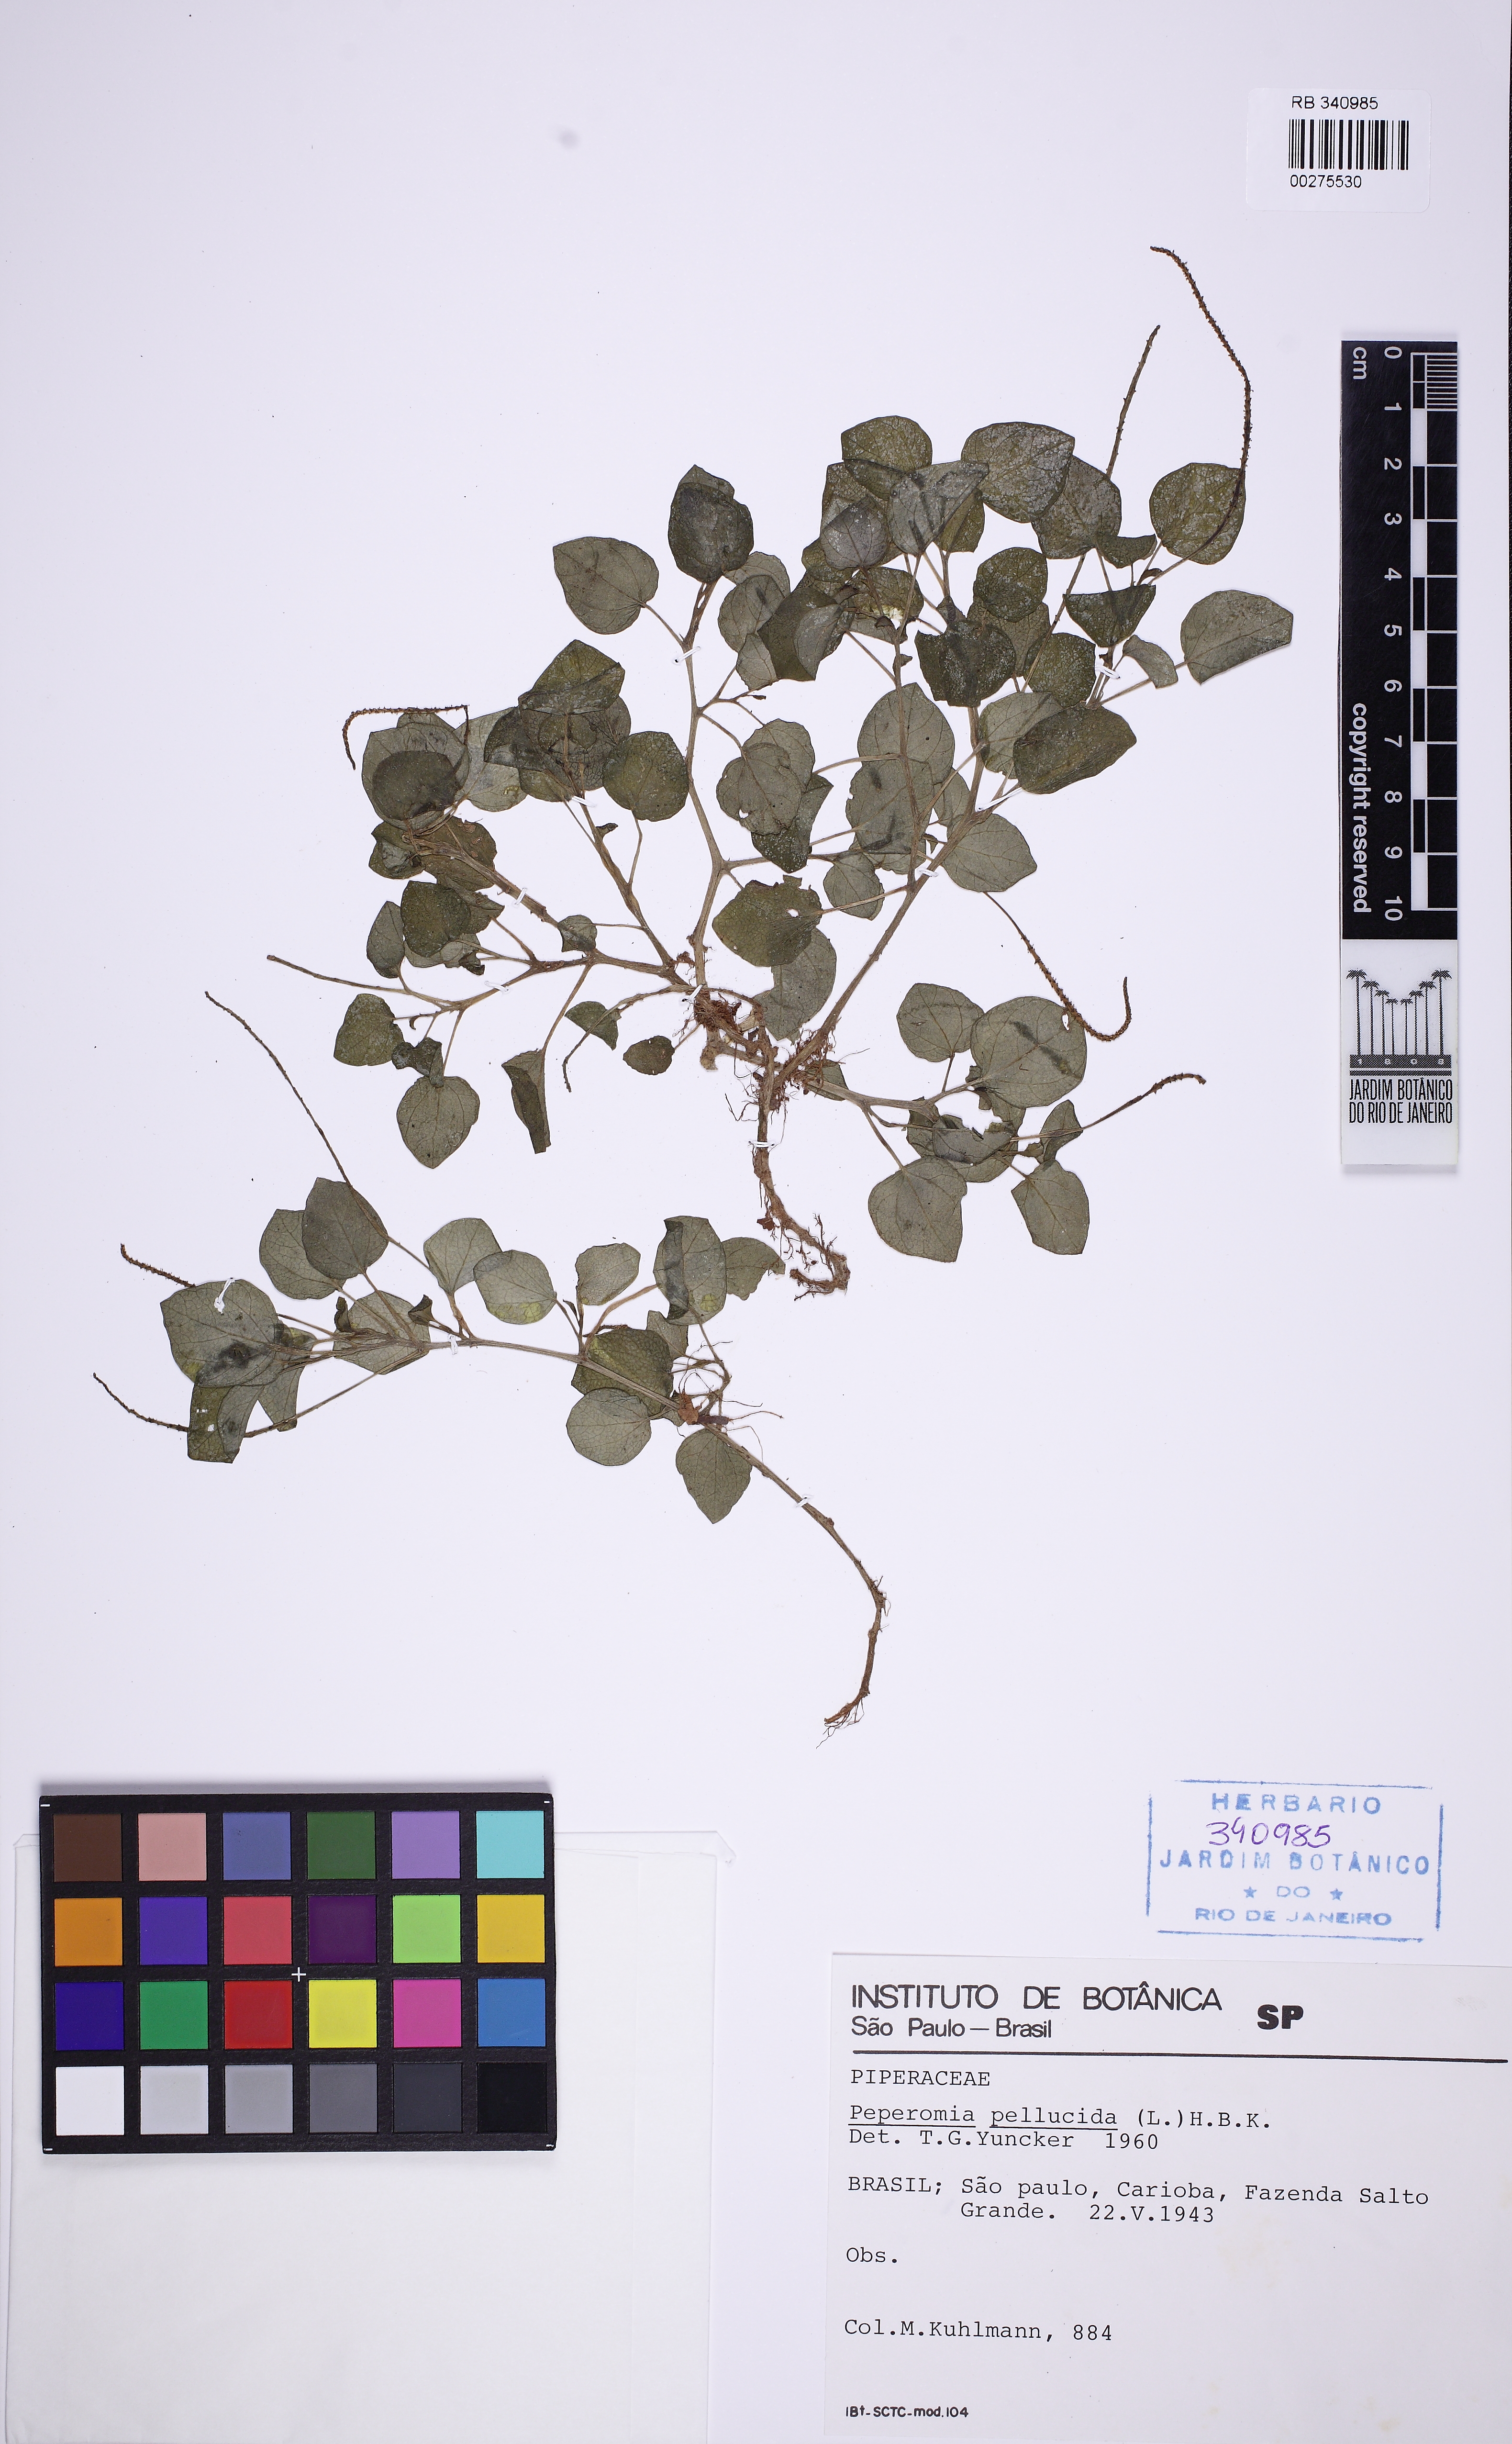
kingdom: Plantae
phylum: Tracheophyta
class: Magnoliopsida
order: Piperales
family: Piperaceae
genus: Peperomia
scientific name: Peperomia duartei
